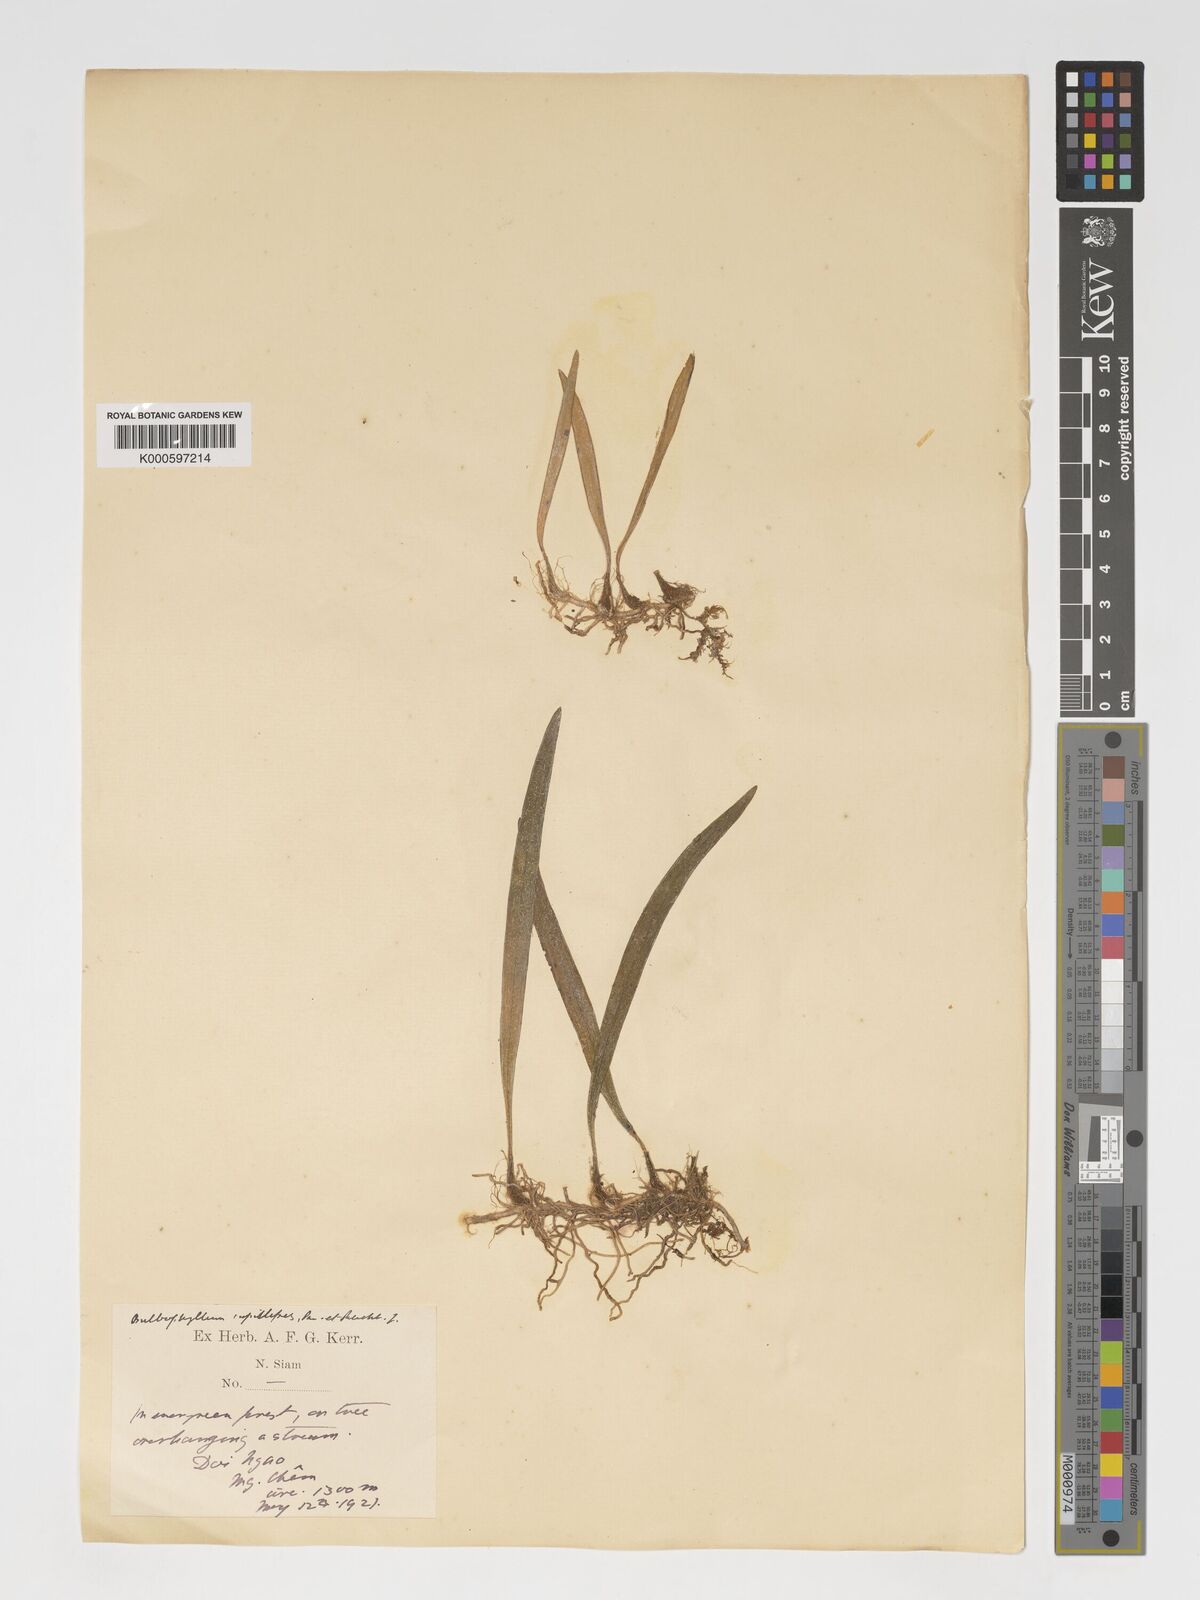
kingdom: Plantae
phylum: Tracheophyta
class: Liliopsida
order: Asparagales
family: Orchidaceae
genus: Bulbophyllum
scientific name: Bulbophyllum capillipes
